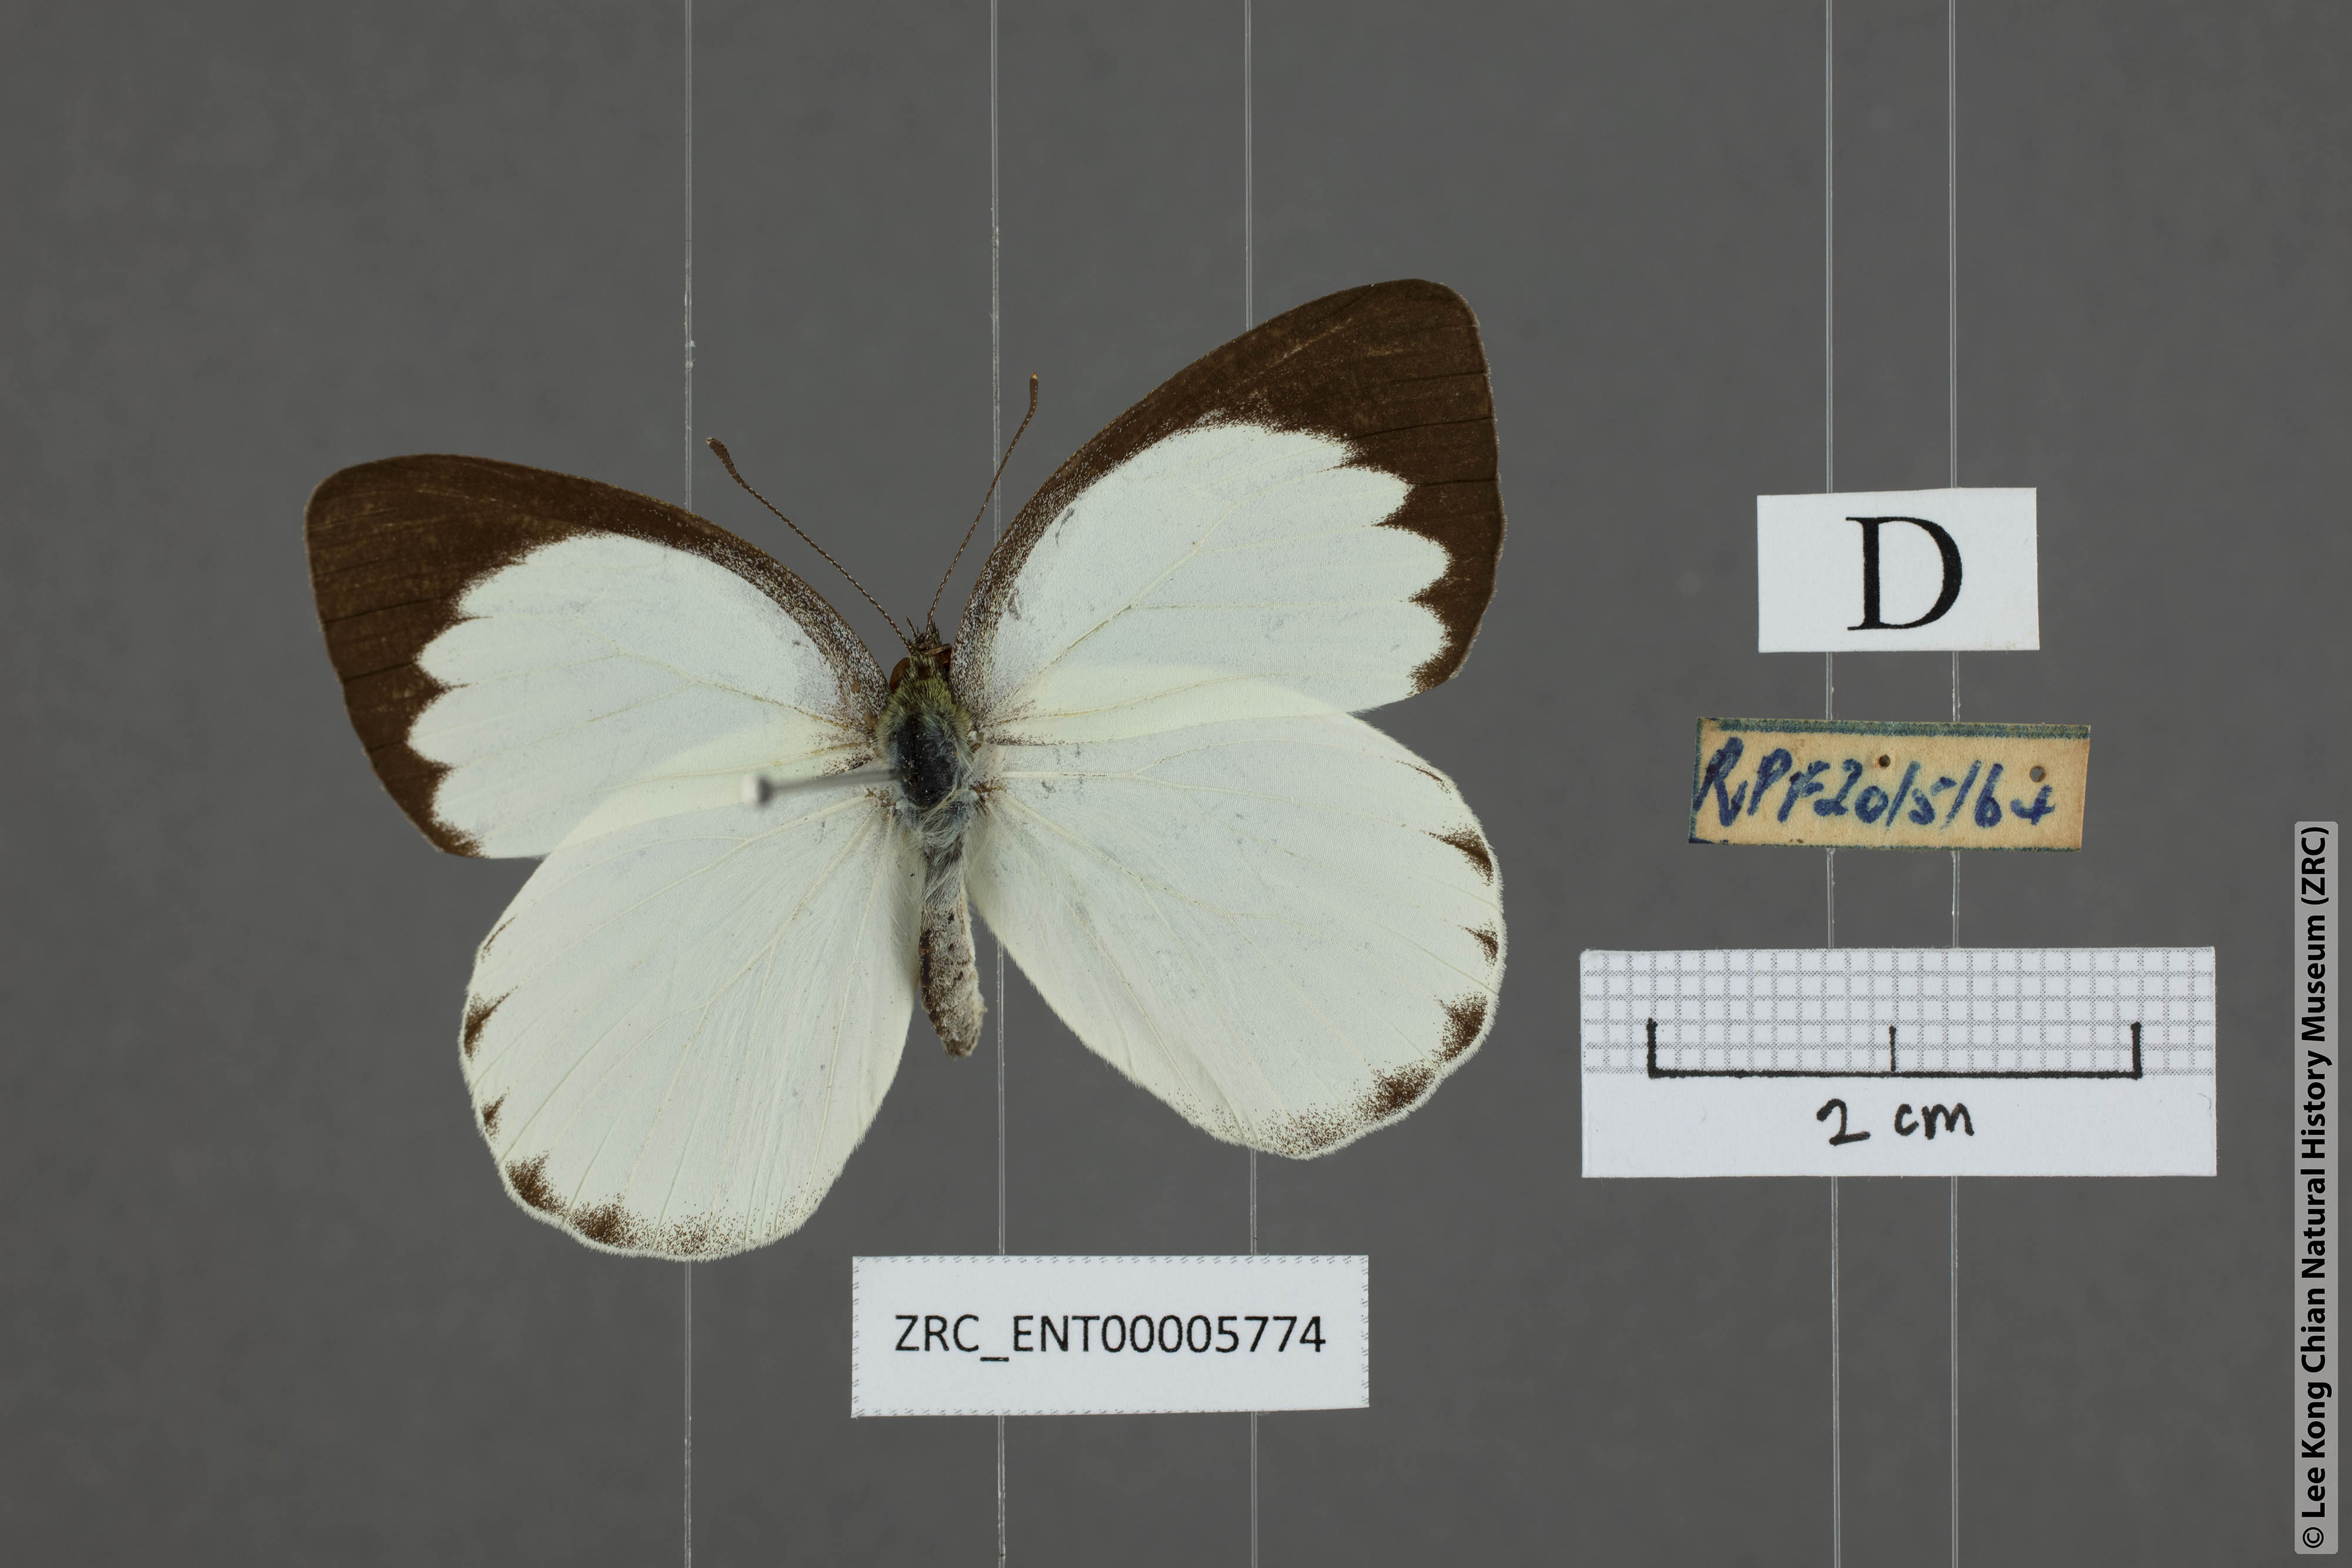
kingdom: Animalia
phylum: Arthropoda
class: Insecta
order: Lepidoptera
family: Pieridae
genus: Phrissura
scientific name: Phrissura aegis
